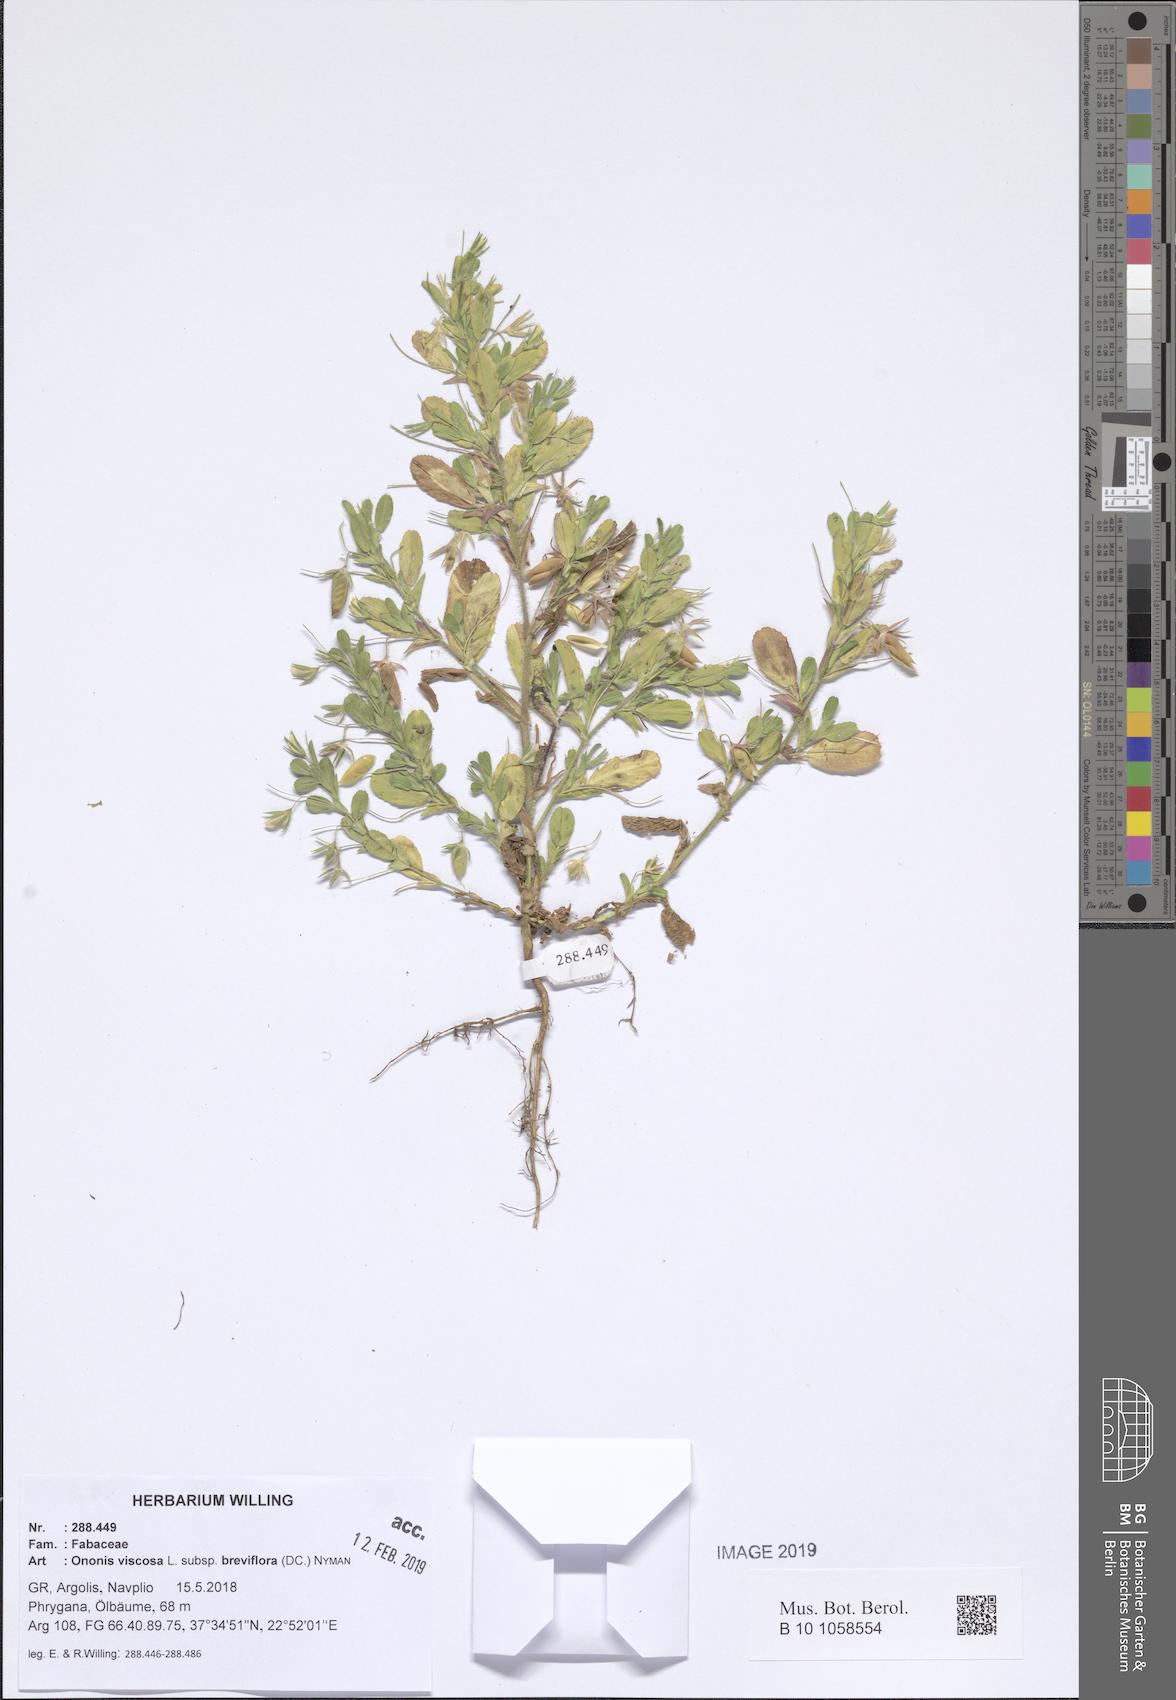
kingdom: Plantae
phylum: Tracheophyta
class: Magnoliopsida
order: Fabales
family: Fabaceae
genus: Ononis
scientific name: Ononis viscosa
